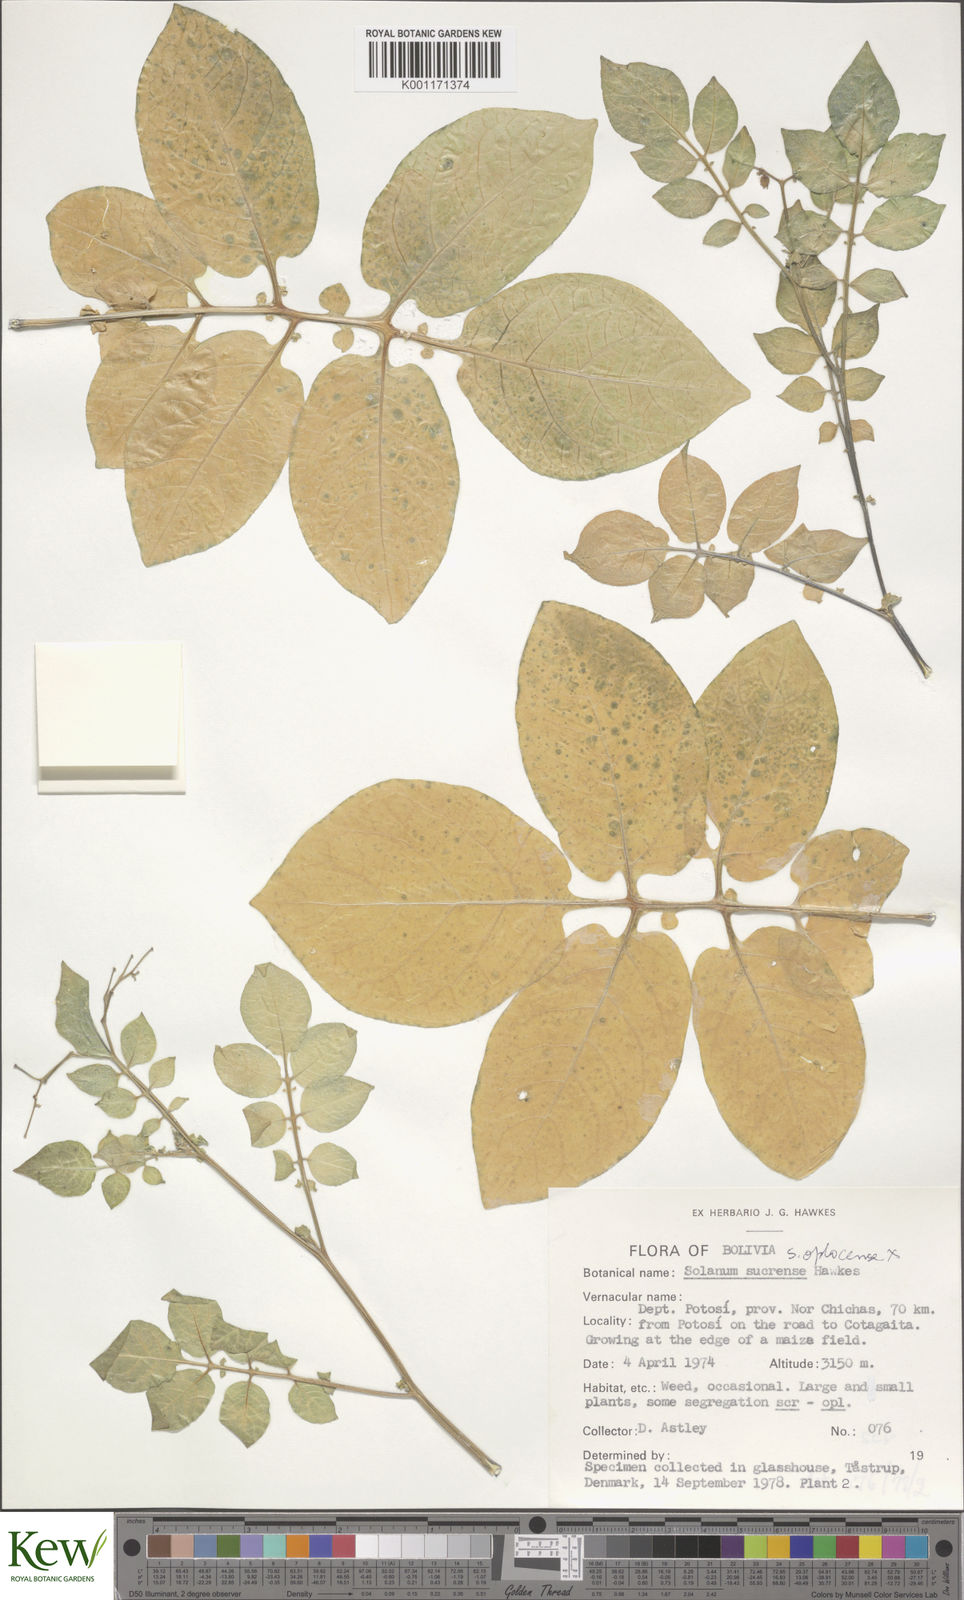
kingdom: Plantae
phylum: Tracheophyta
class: Magnoliopsida
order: Solanales
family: Solanaceae
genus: Solanum
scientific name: Solanum brevicaule
